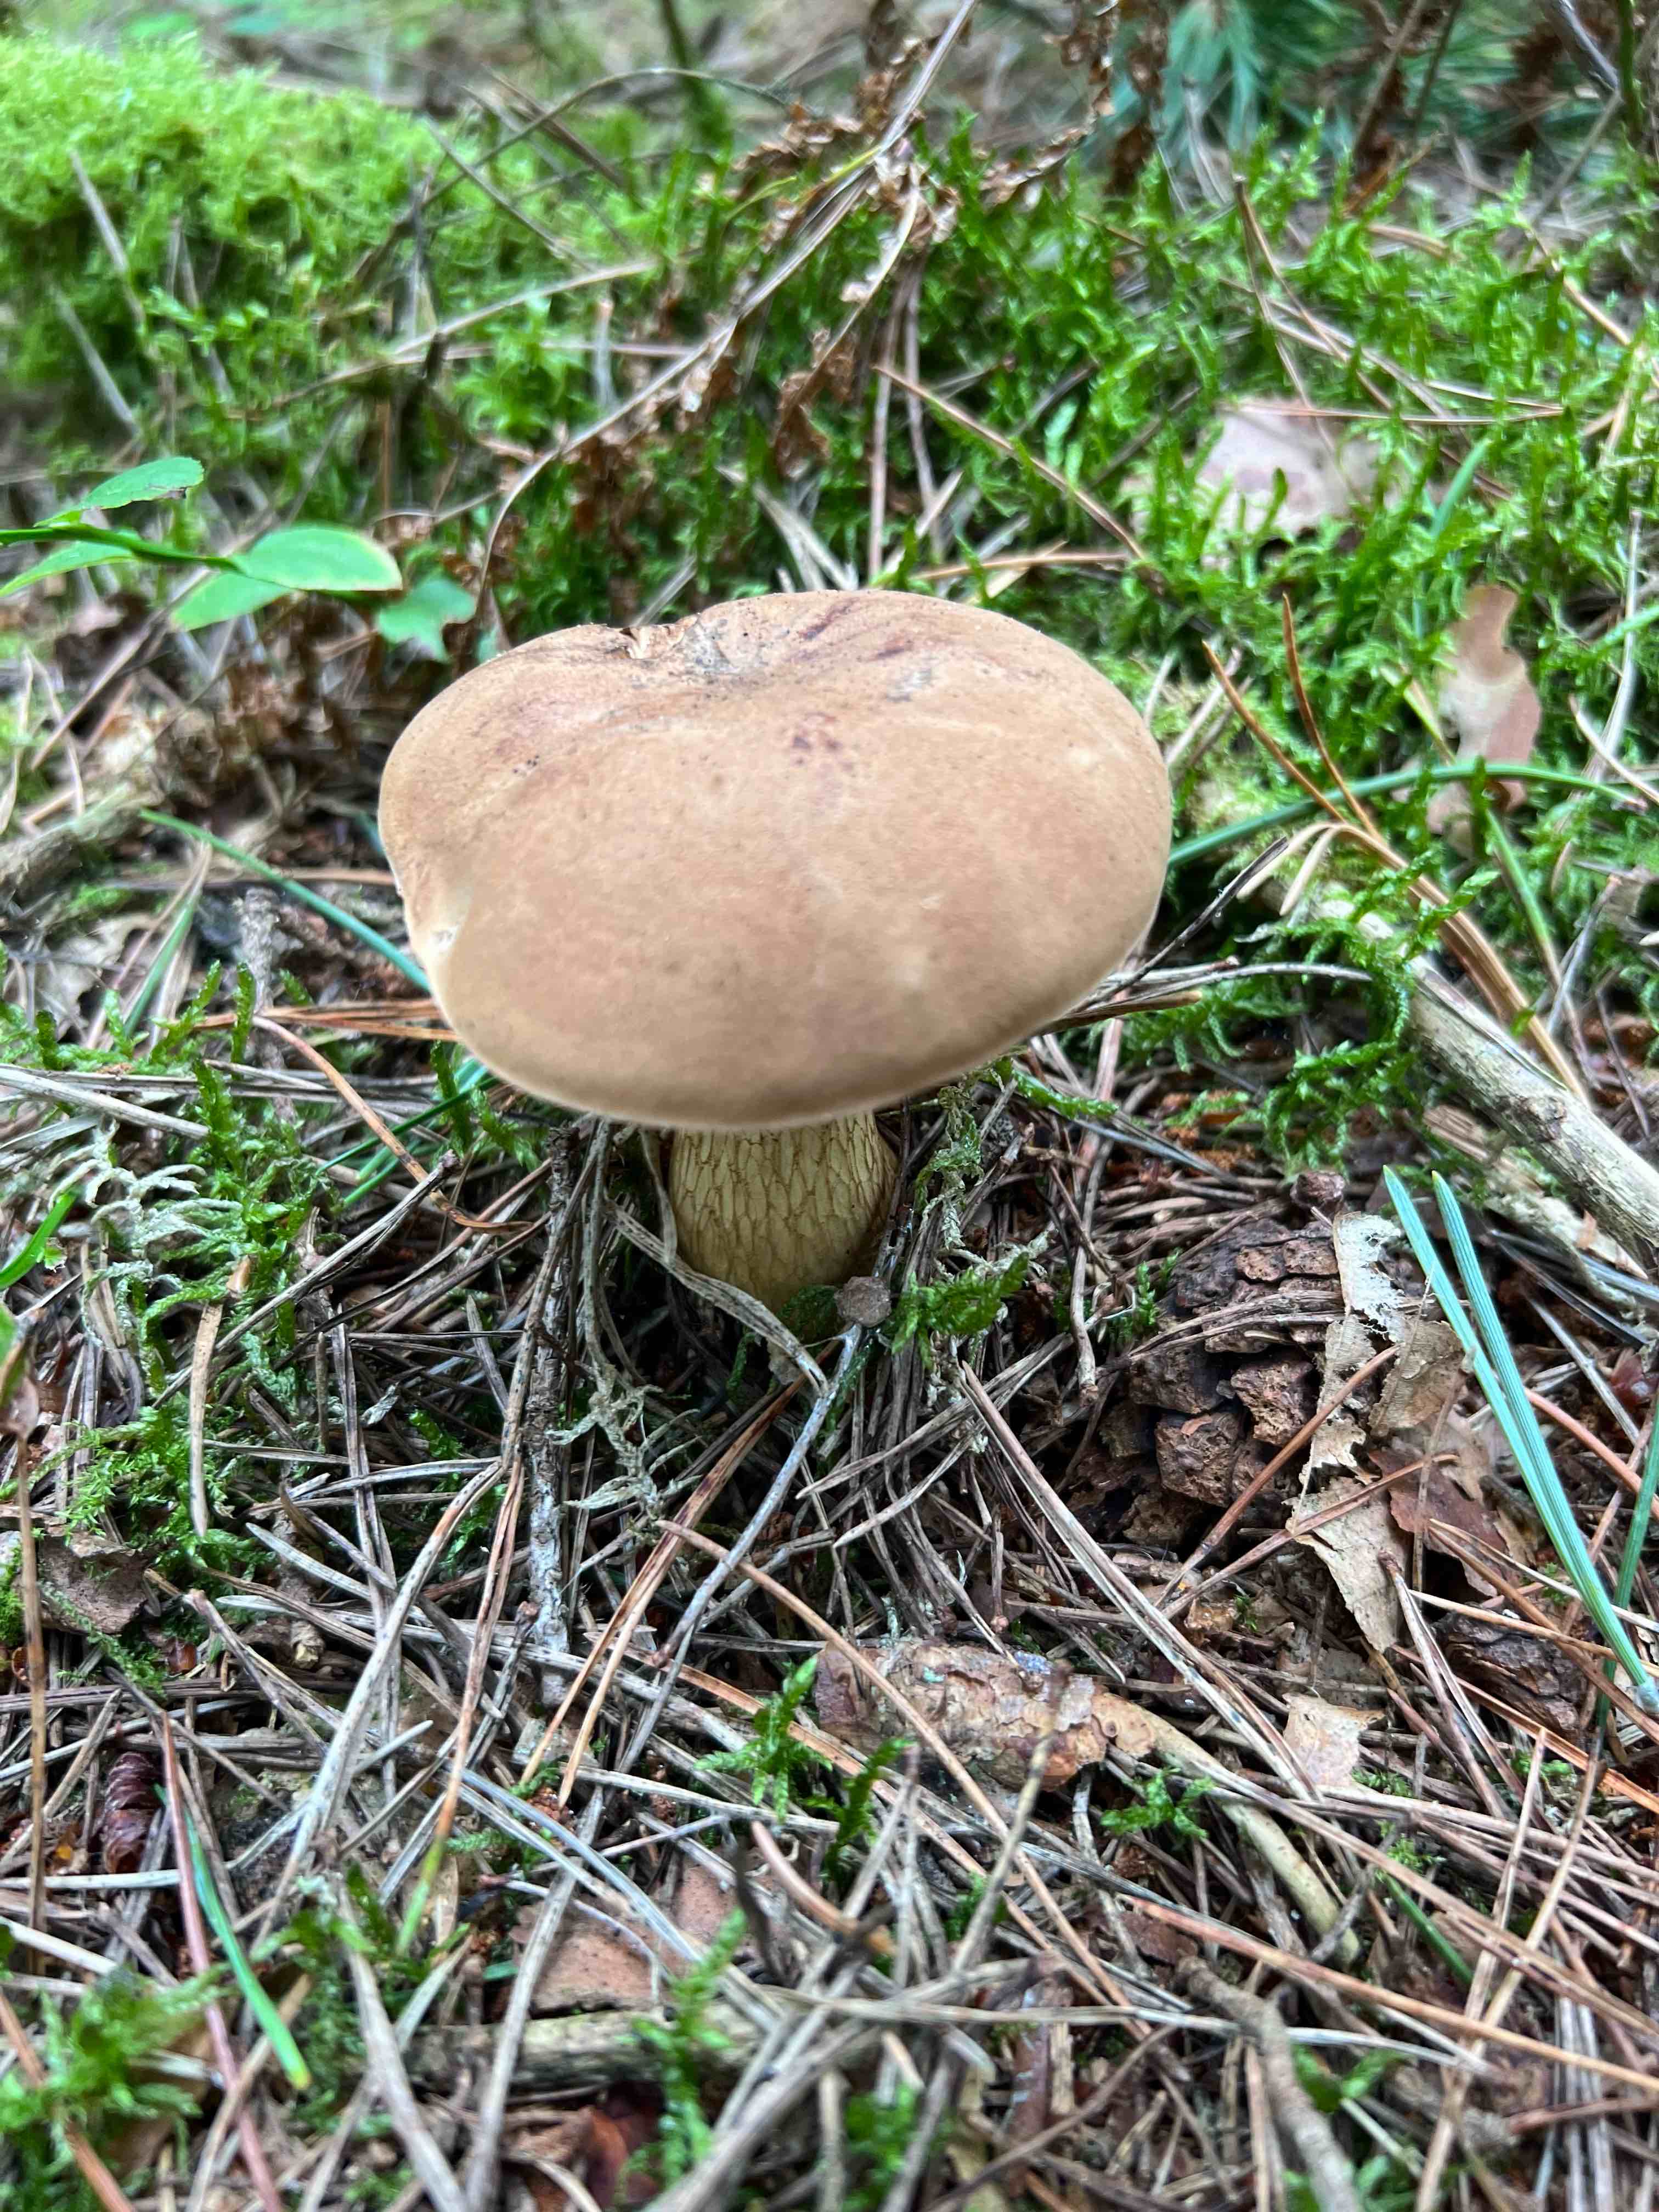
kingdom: Fungi
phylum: Basidiomycota
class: Agaricomycetes
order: Boletales
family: Boletaceae
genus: Tylopilus
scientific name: Tylopilus felleus
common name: galderørhat
